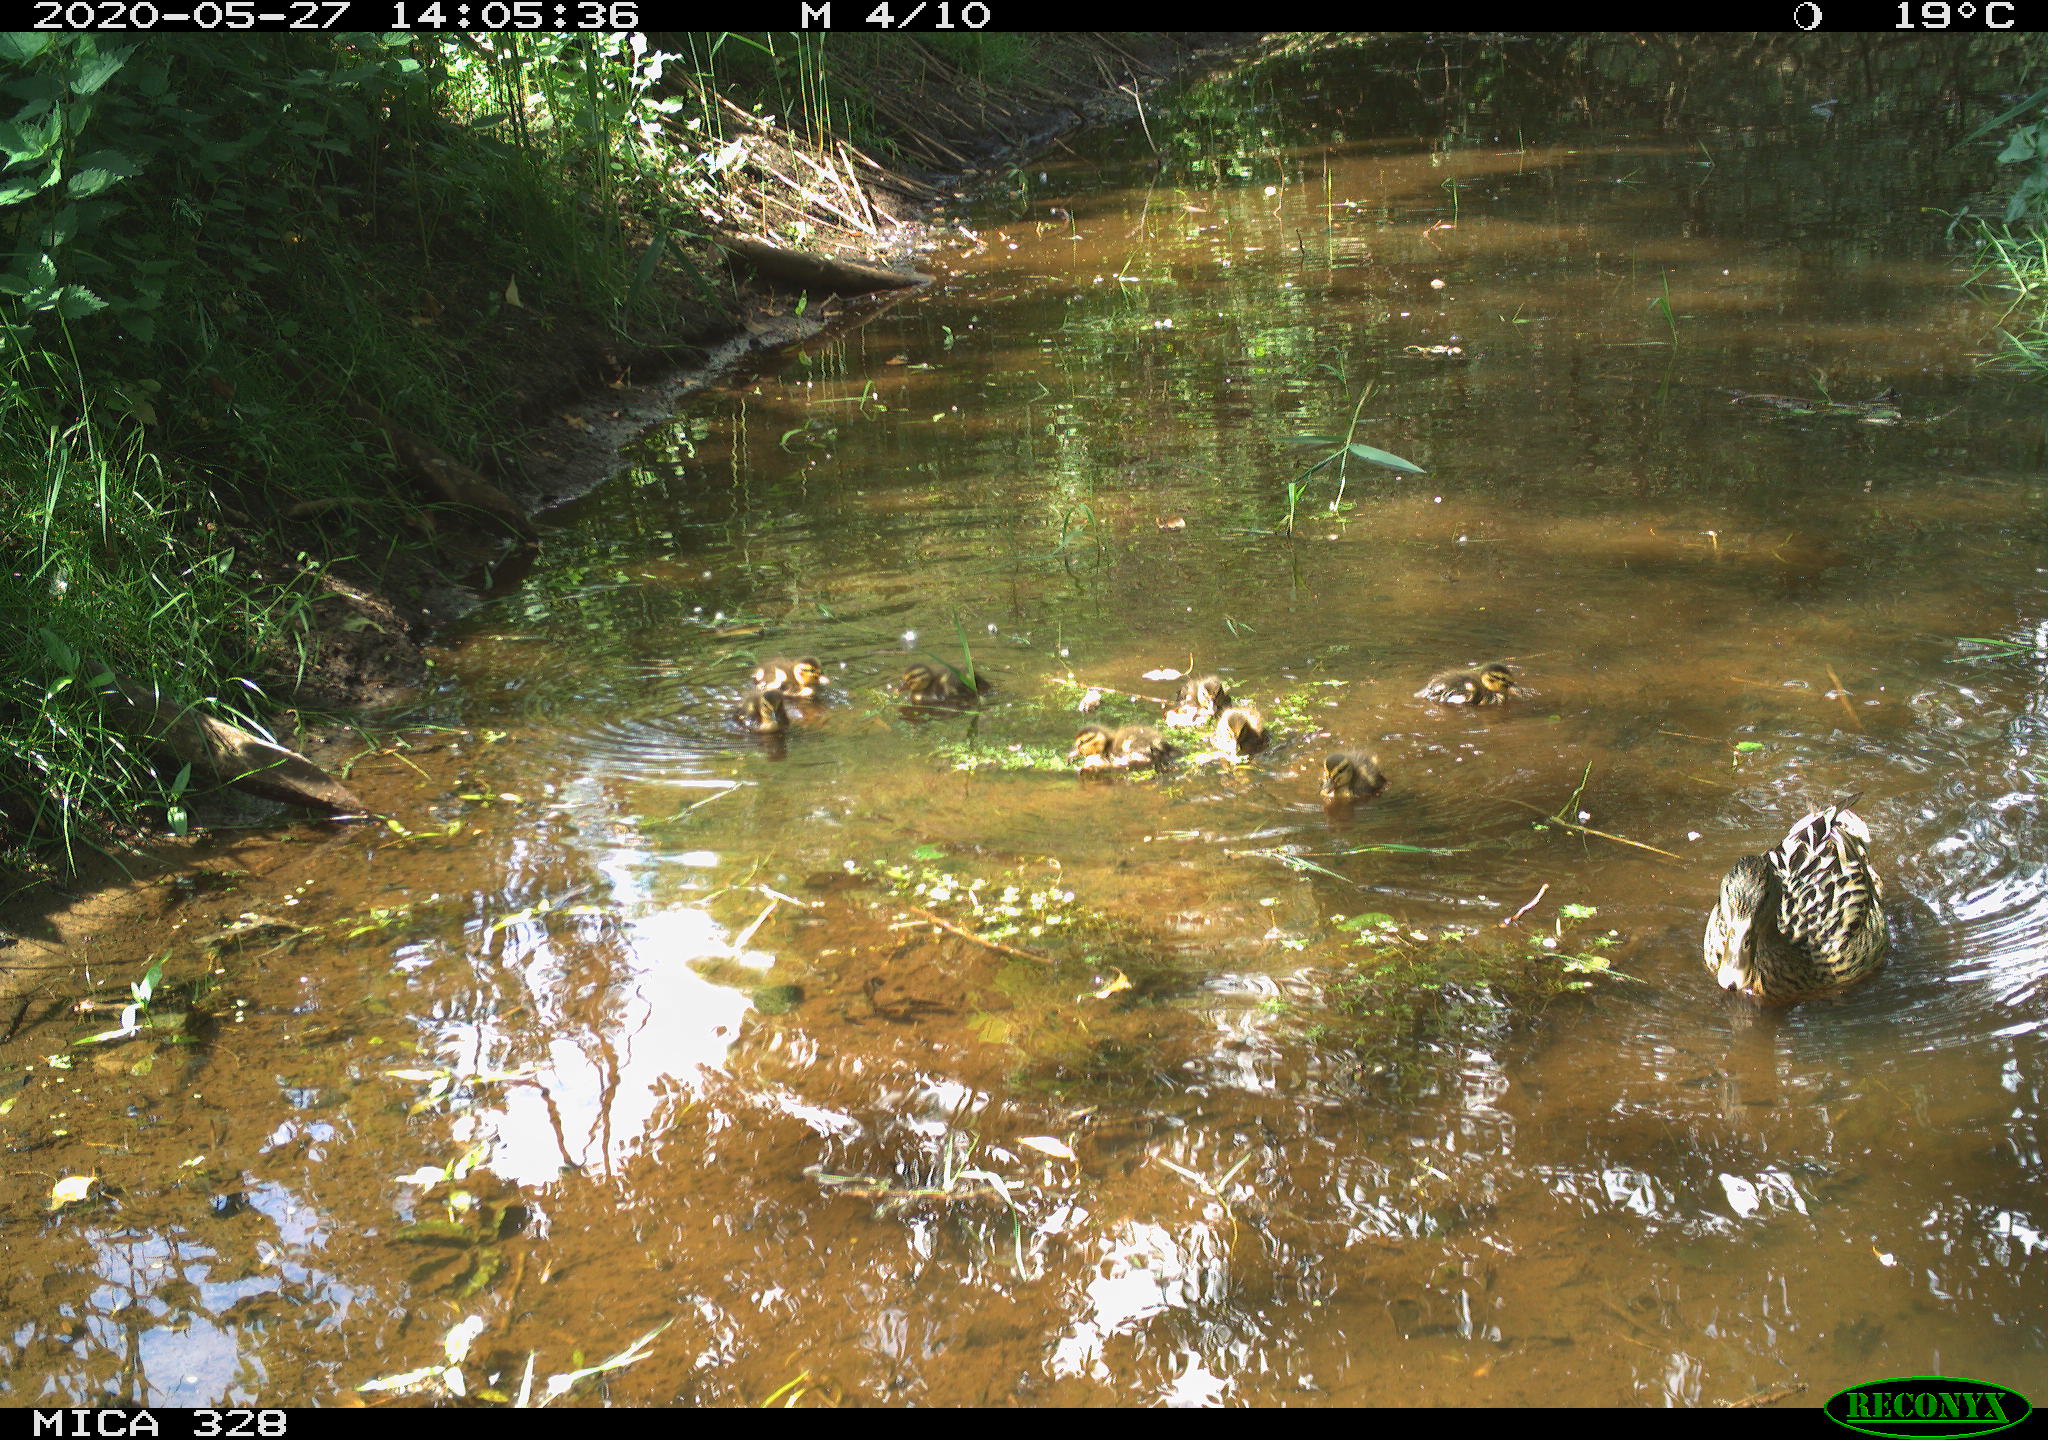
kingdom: Animalia
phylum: Chordata
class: Aves
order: Anseriformes
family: Anatidae
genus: Anas
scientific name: Anas platyrhynchos
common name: Mallard
